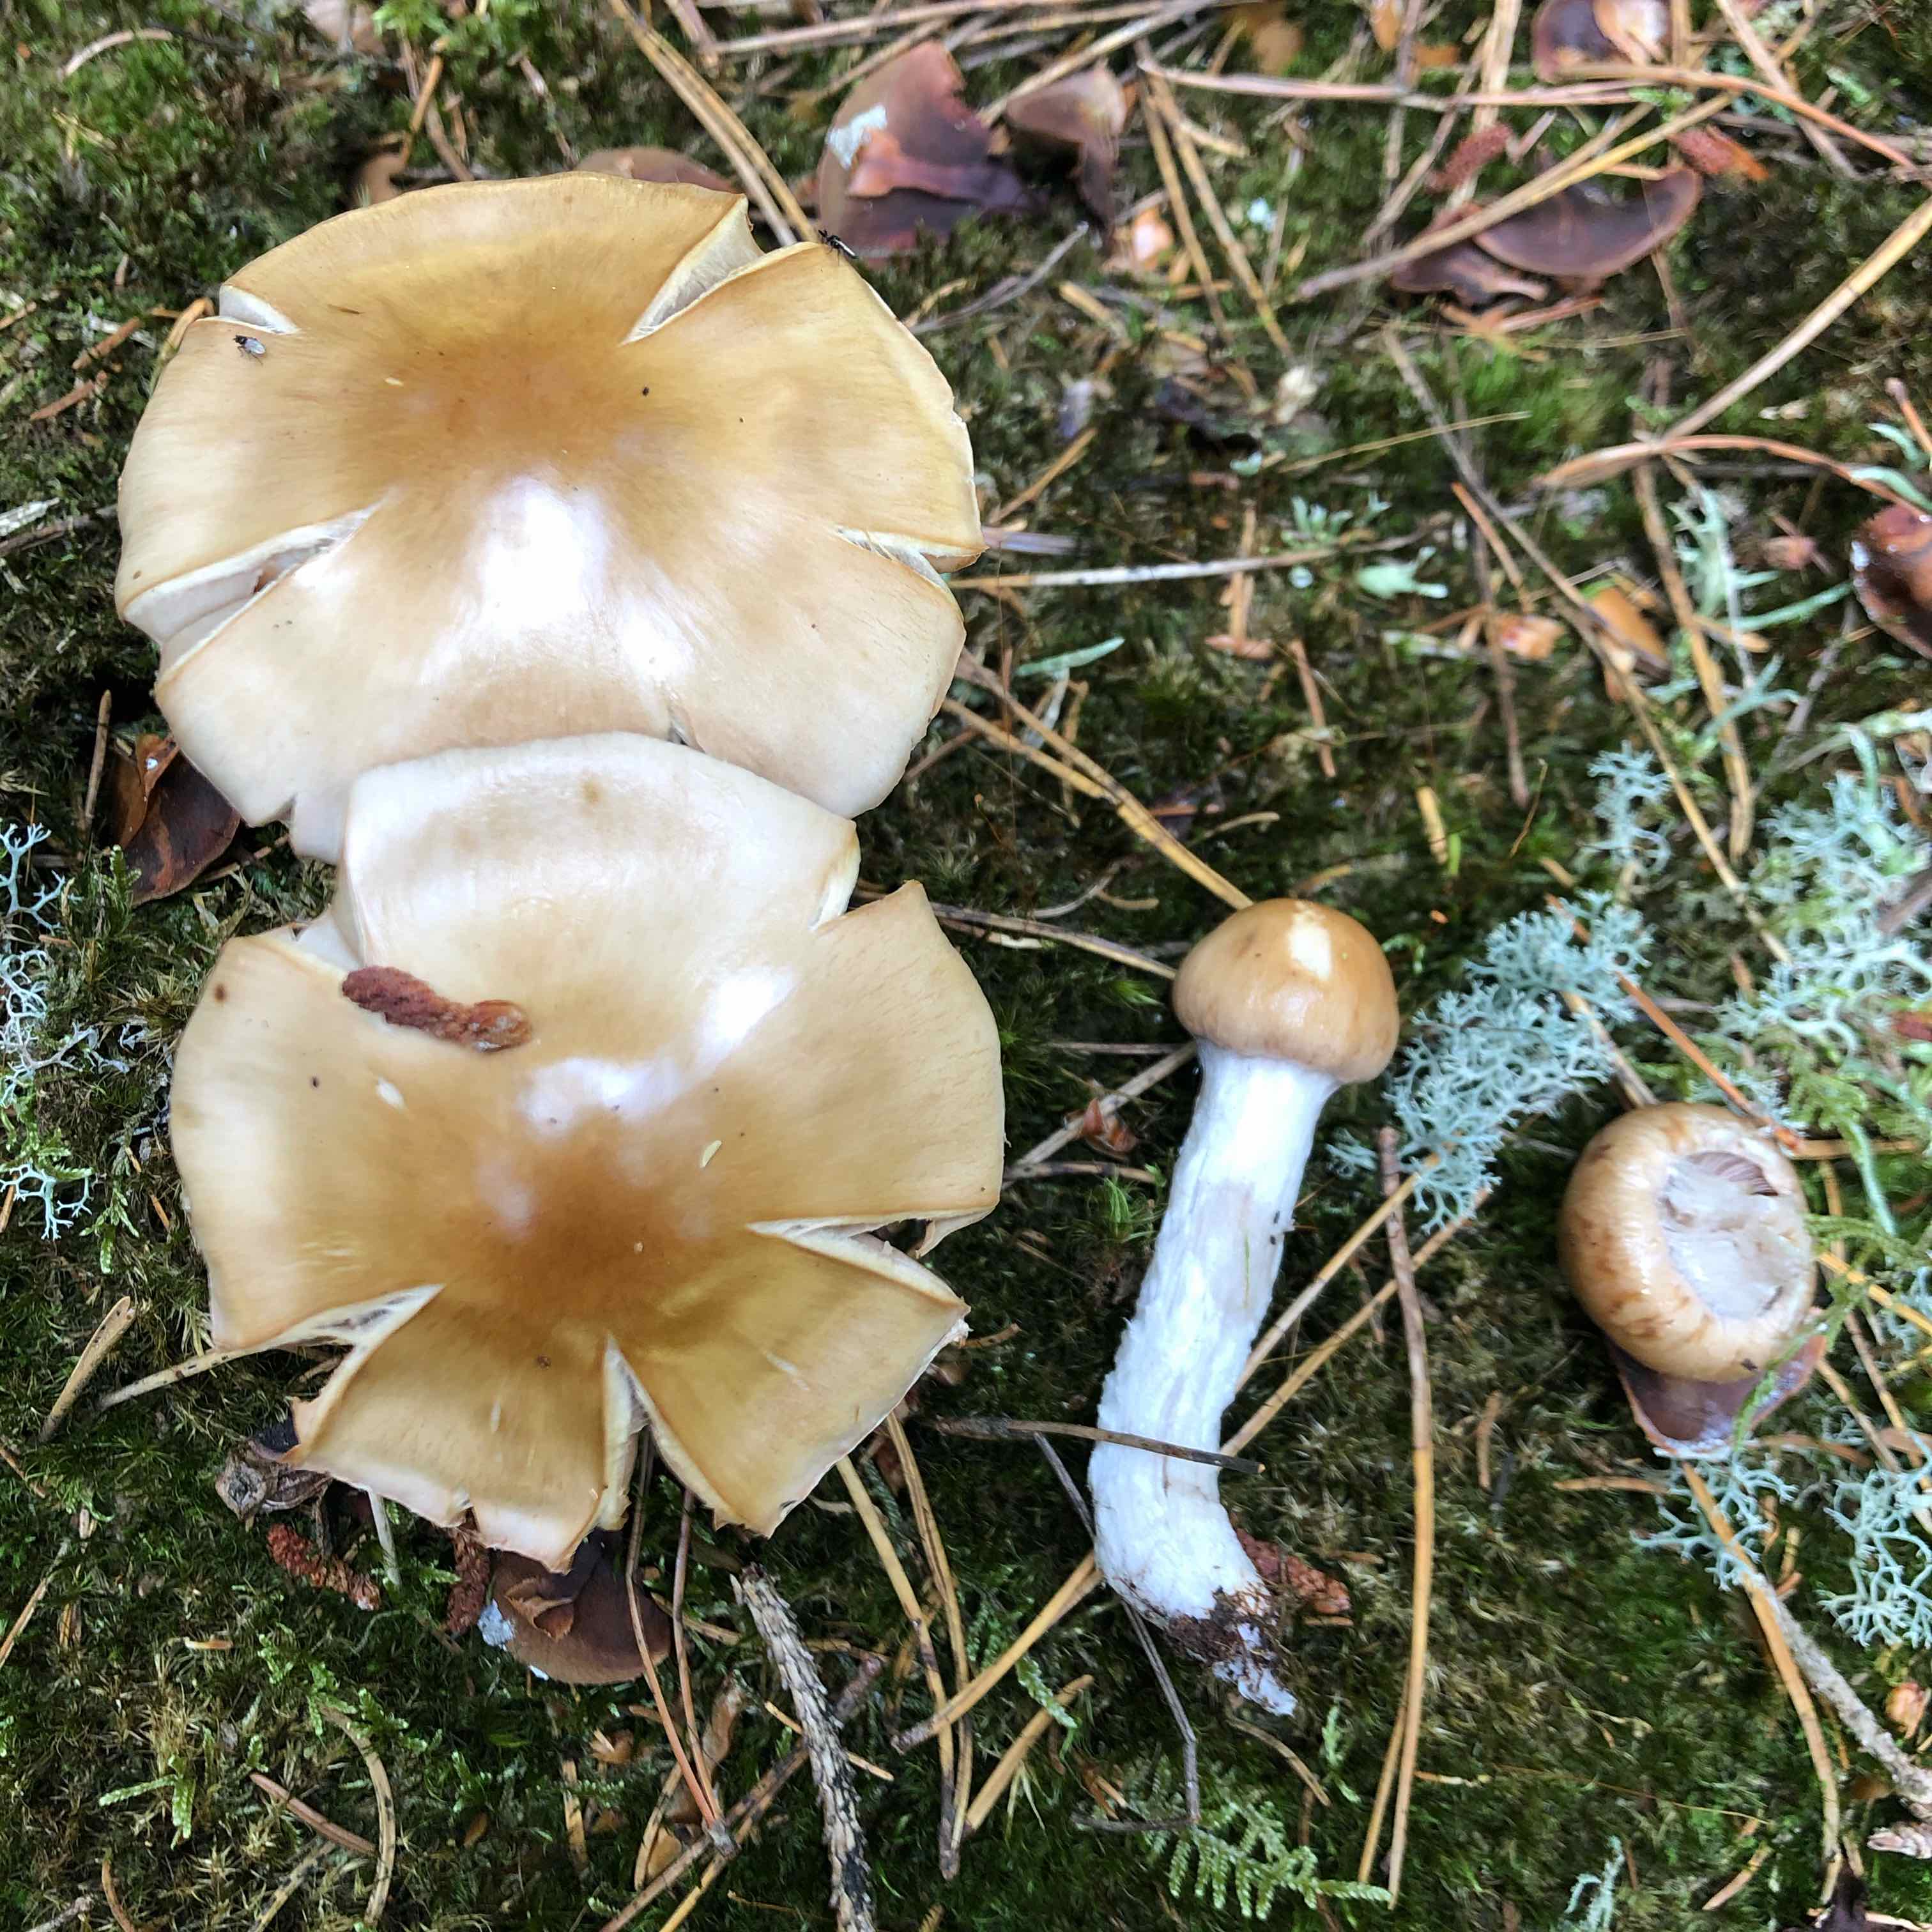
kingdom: Fungi
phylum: Basidiomycota
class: Agaricomycetes
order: Agaricales
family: Cortinariaceae
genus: Cortinarius
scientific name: Cortinarius
